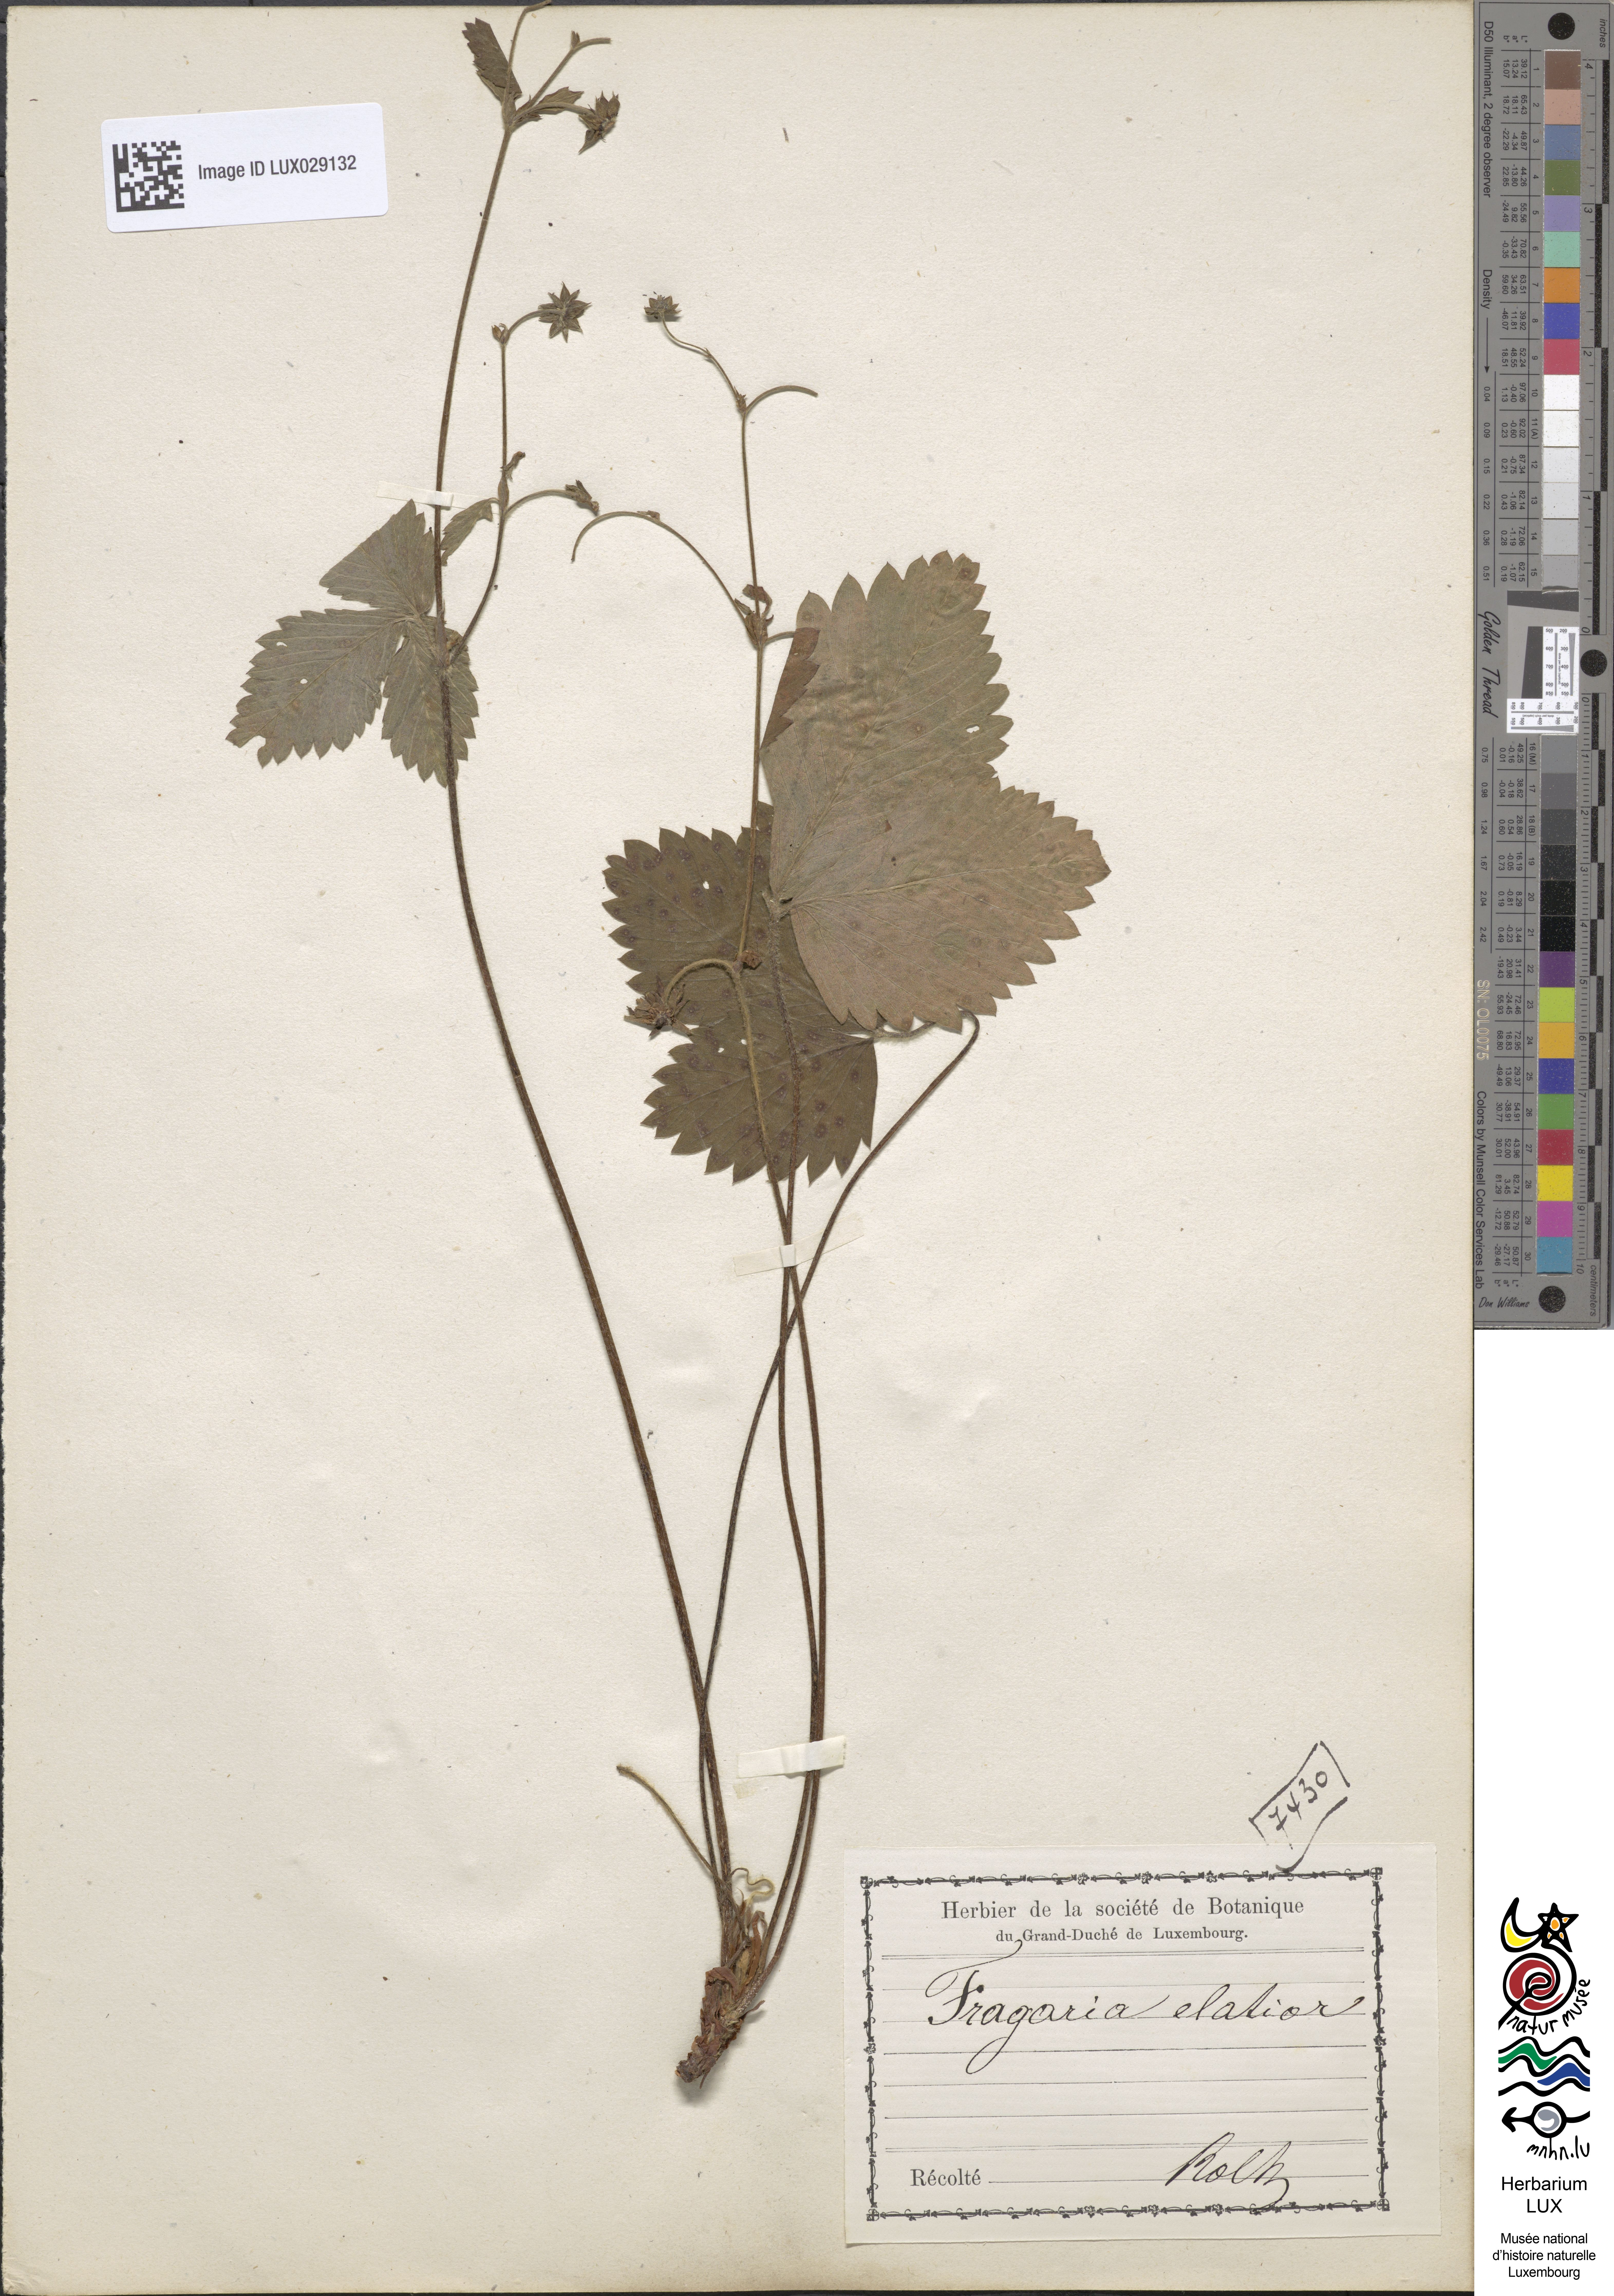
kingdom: Plantae
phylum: Tracheophyta
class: Magnoliopsida
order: Rosales
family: Rosaceae
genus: Fragaria
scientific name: Fragaria moschata
